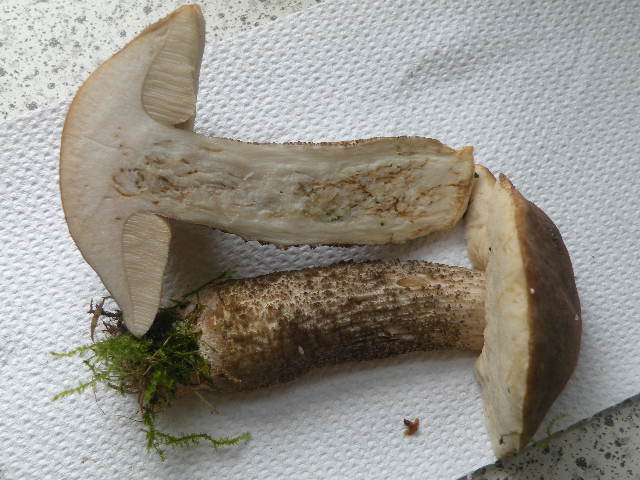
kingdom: Fungi
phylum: Basidiomycota
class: Agaricomycetes
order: Boletales
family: Boletaceae
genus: Leccinum
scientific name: Leccinum scabrum
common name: brun skælrørhat
